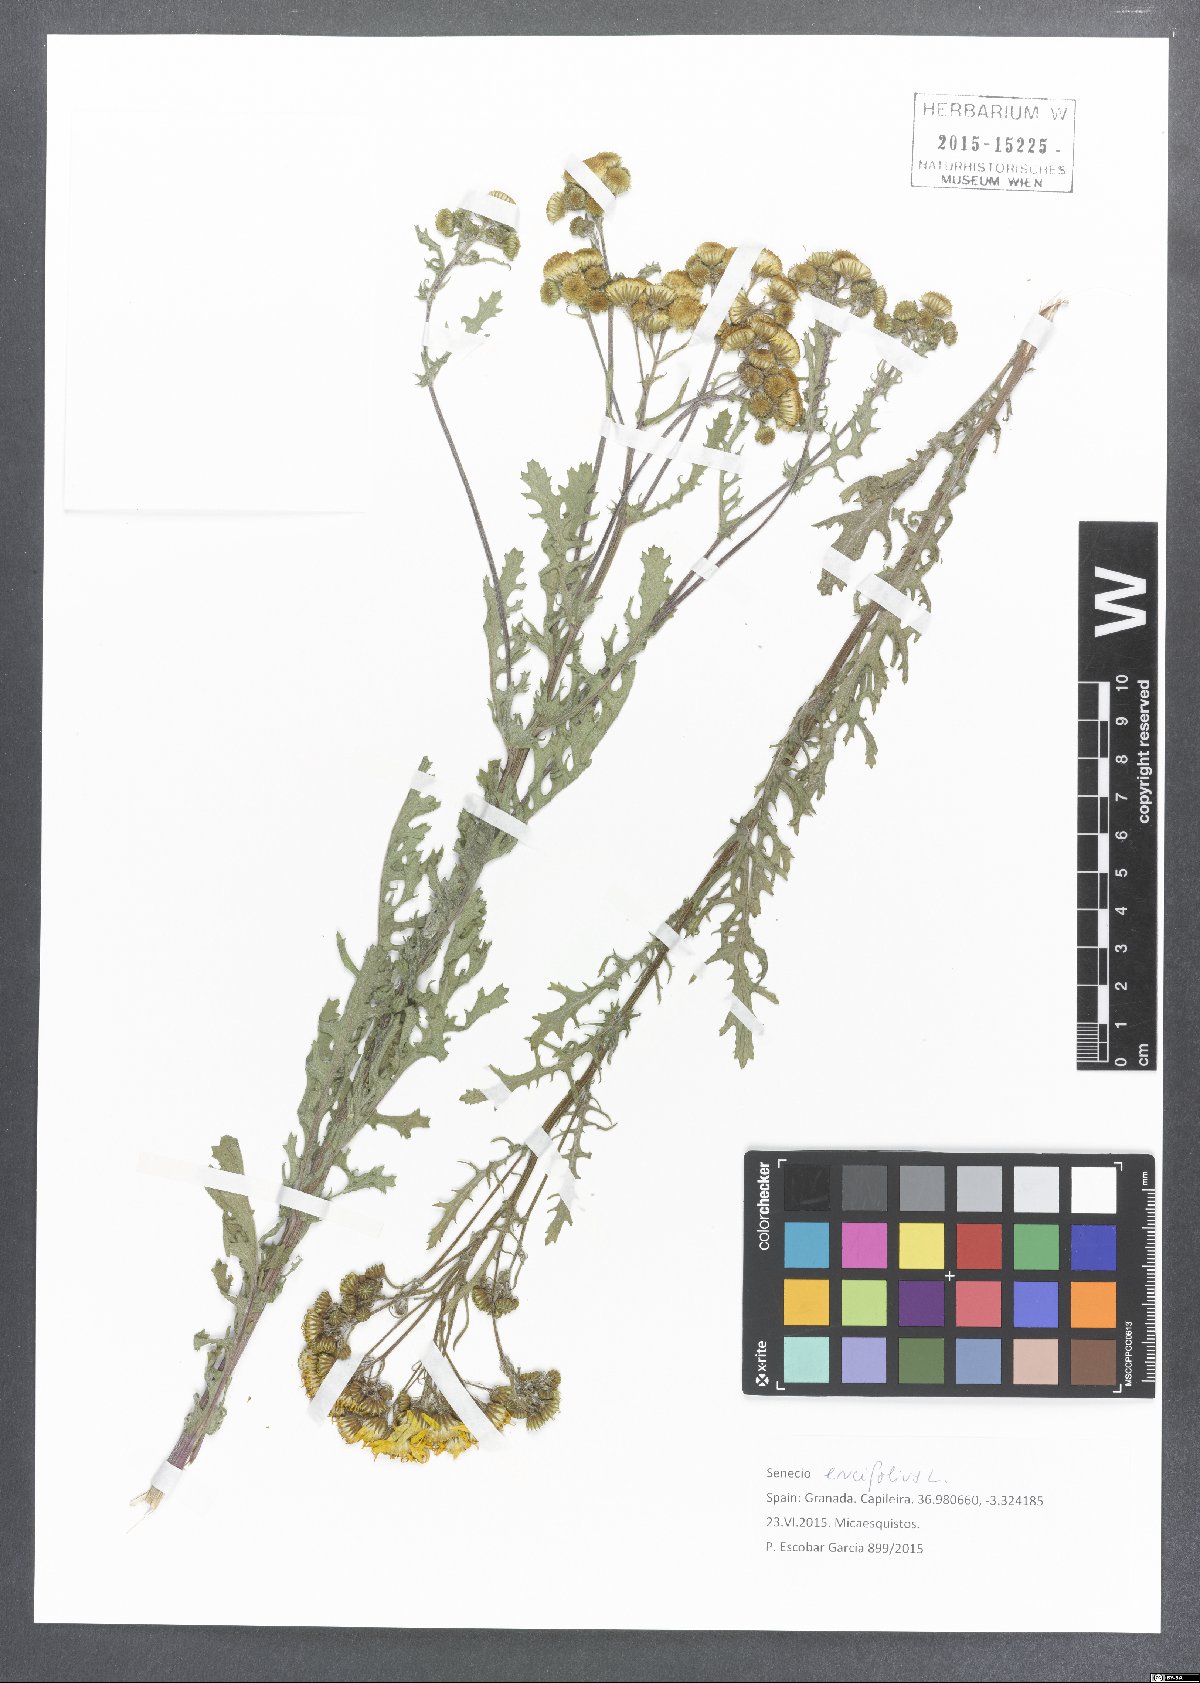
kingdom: Plantae
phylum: Tracheophyta
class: Magnoliopsida
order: Asterales
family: Asteraceae
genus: Jacobaea
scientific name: Jacobaea erucifolia
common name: Hoary ragwort
